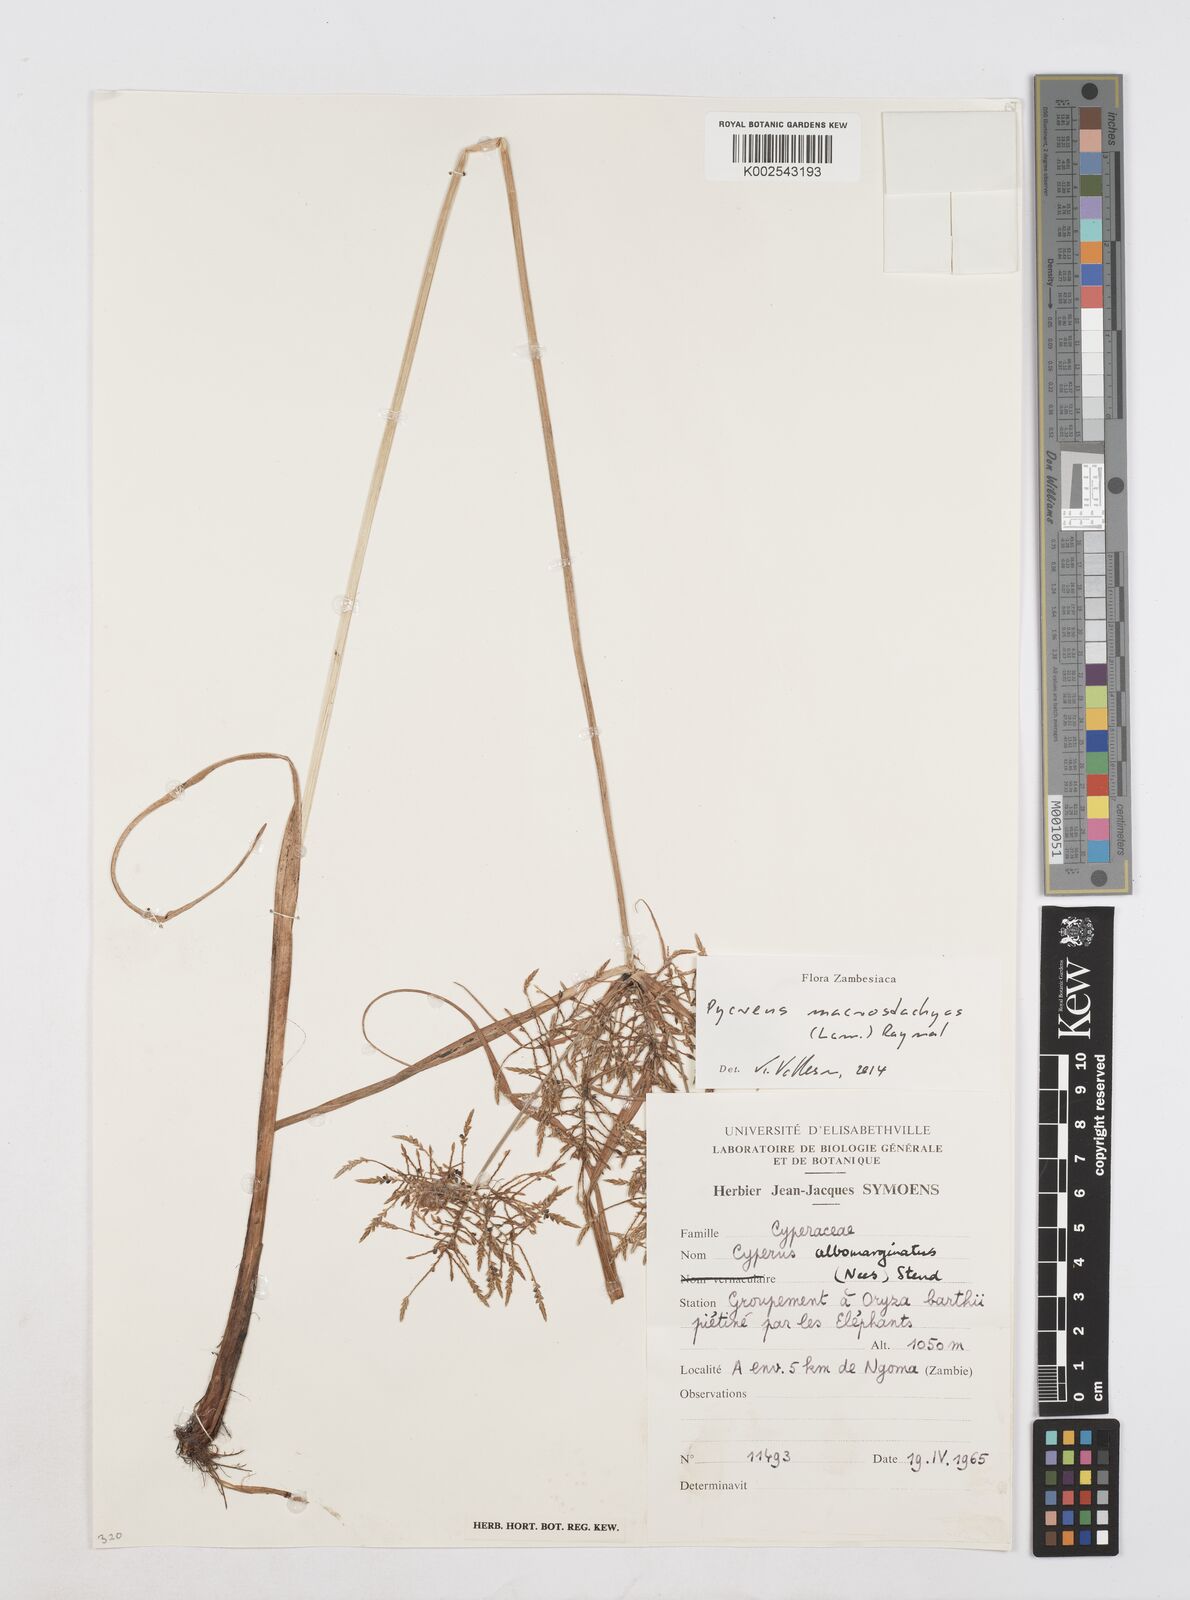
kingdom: Plantae
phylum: Tracheophyta
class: Liliopsida
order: Poales
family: Cyperaceae
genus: Cyperus
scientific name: Cyperus macrostachyos
